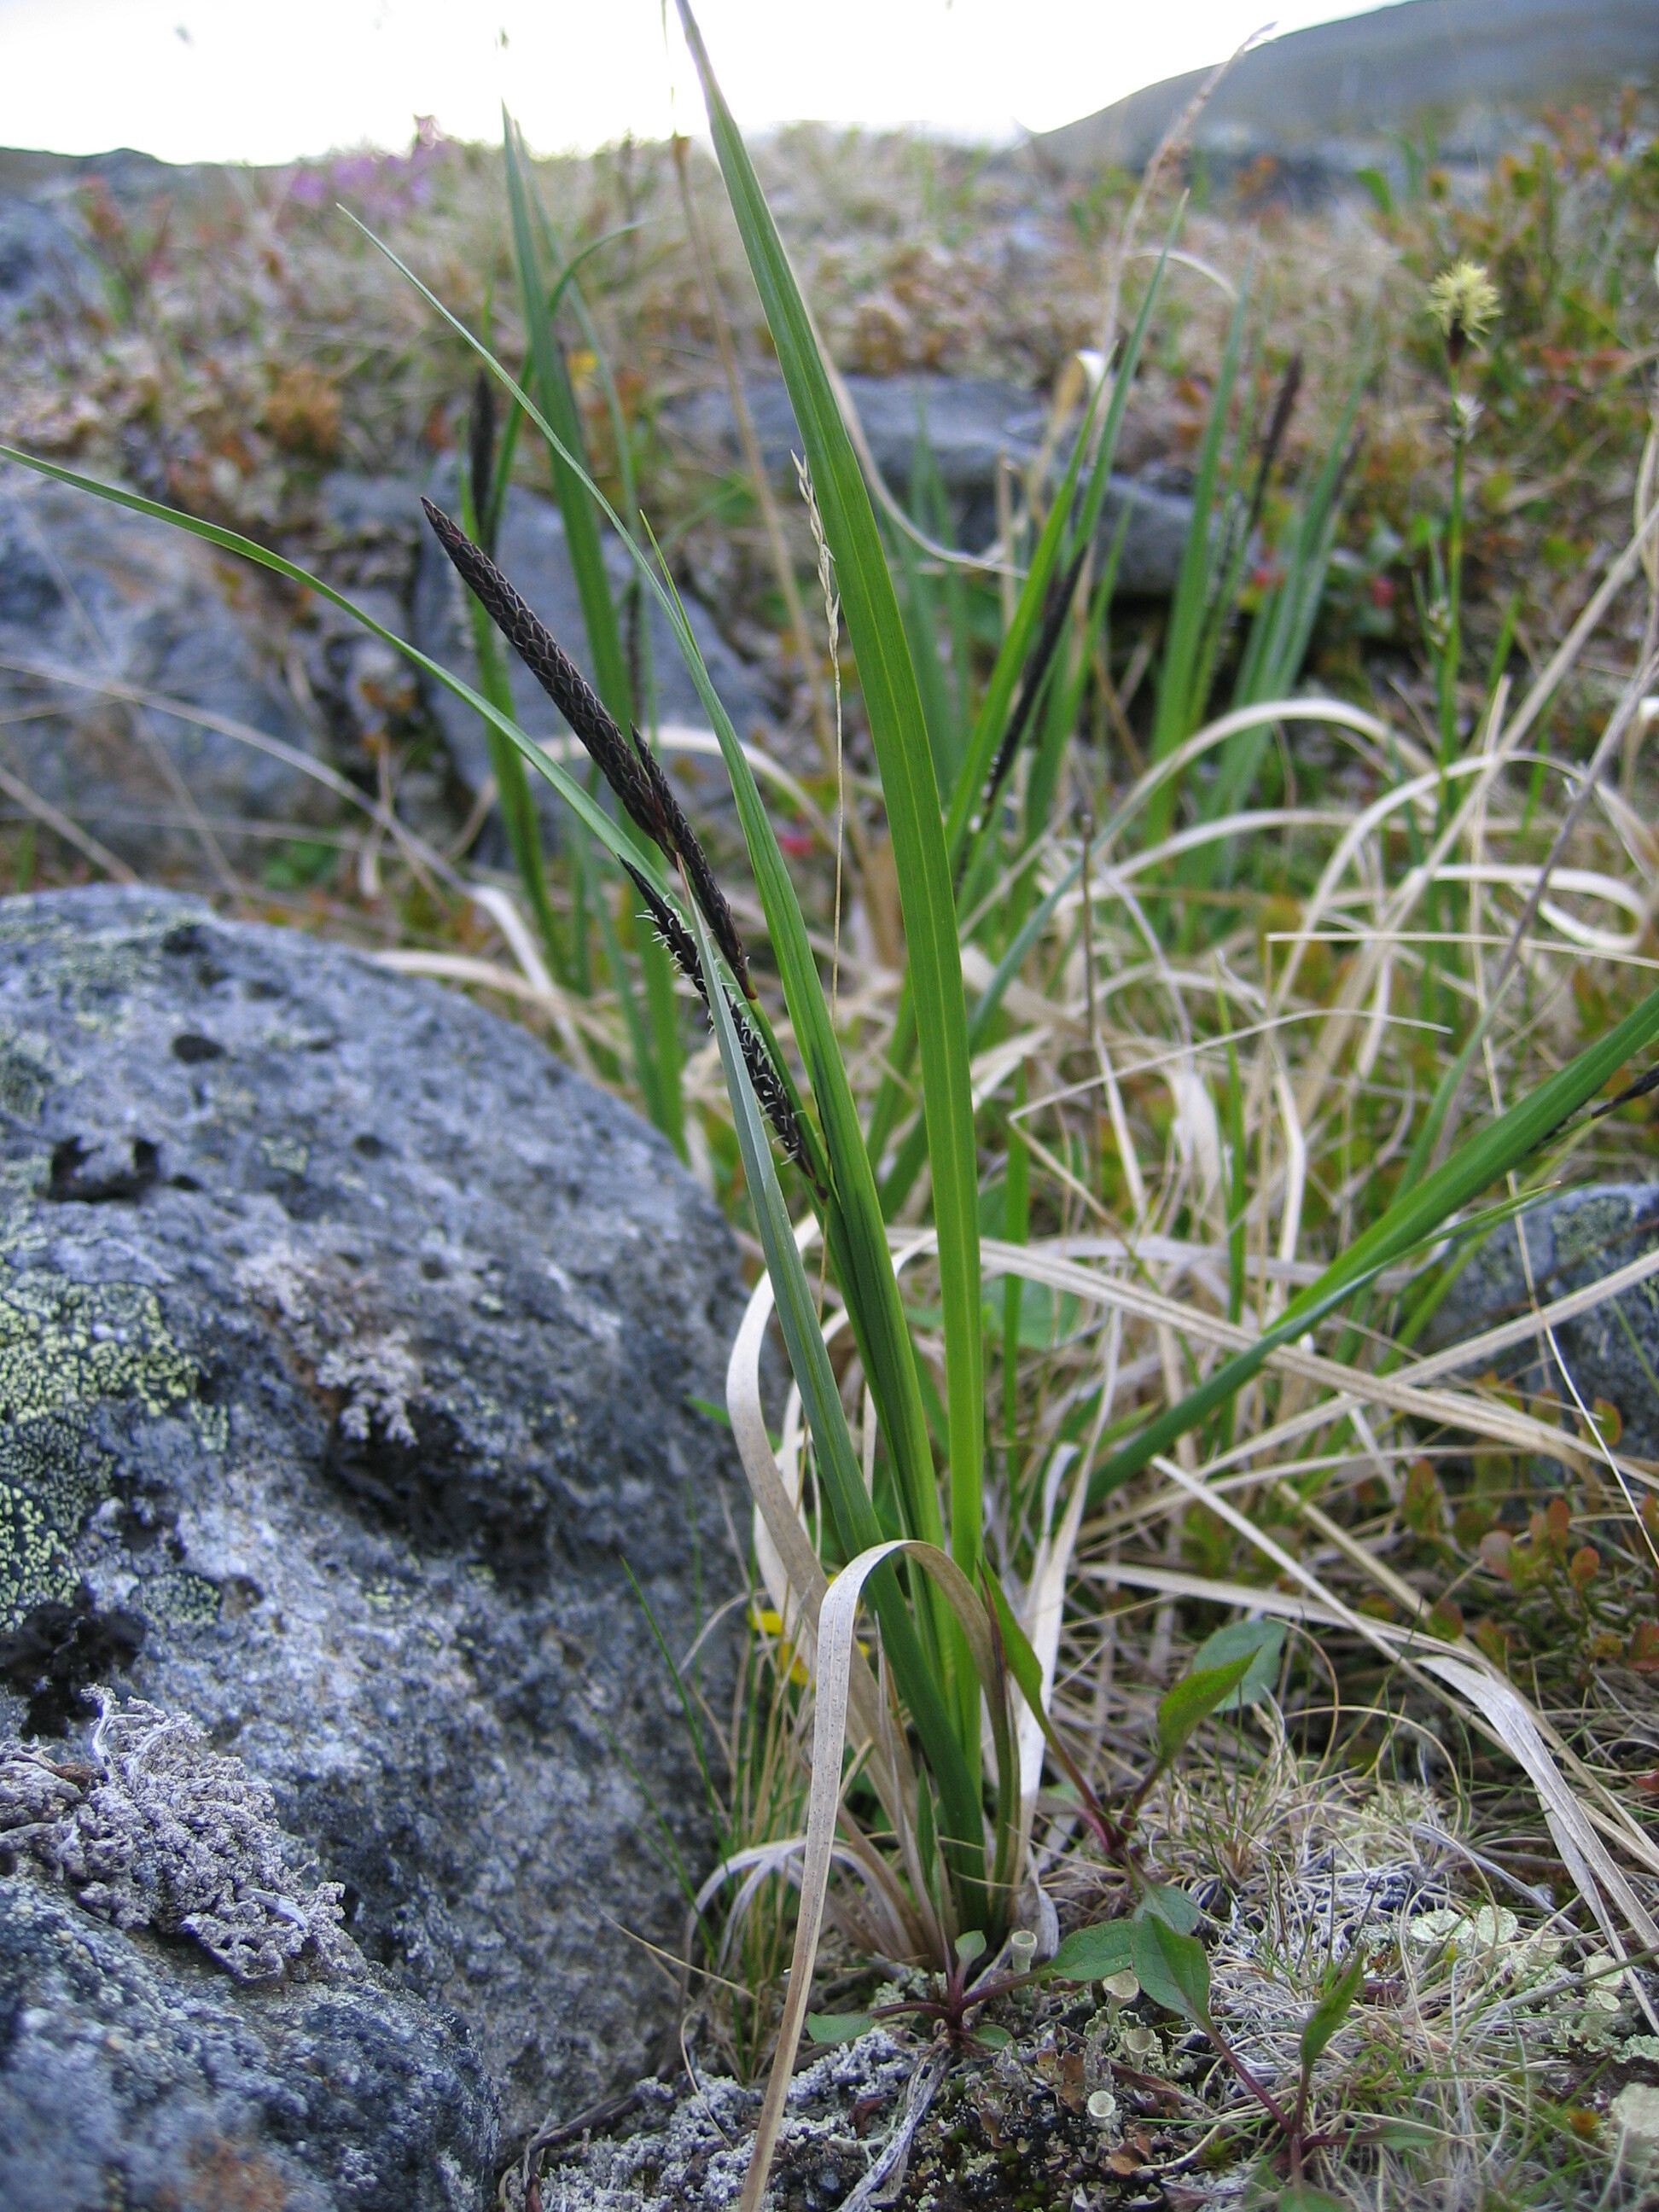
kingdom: Plantae
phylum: Tracheophyta
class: Liliopsida
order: Poales
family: Cyperaceae
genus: Carex
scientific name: Carex aquatilis
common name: Water sedge
